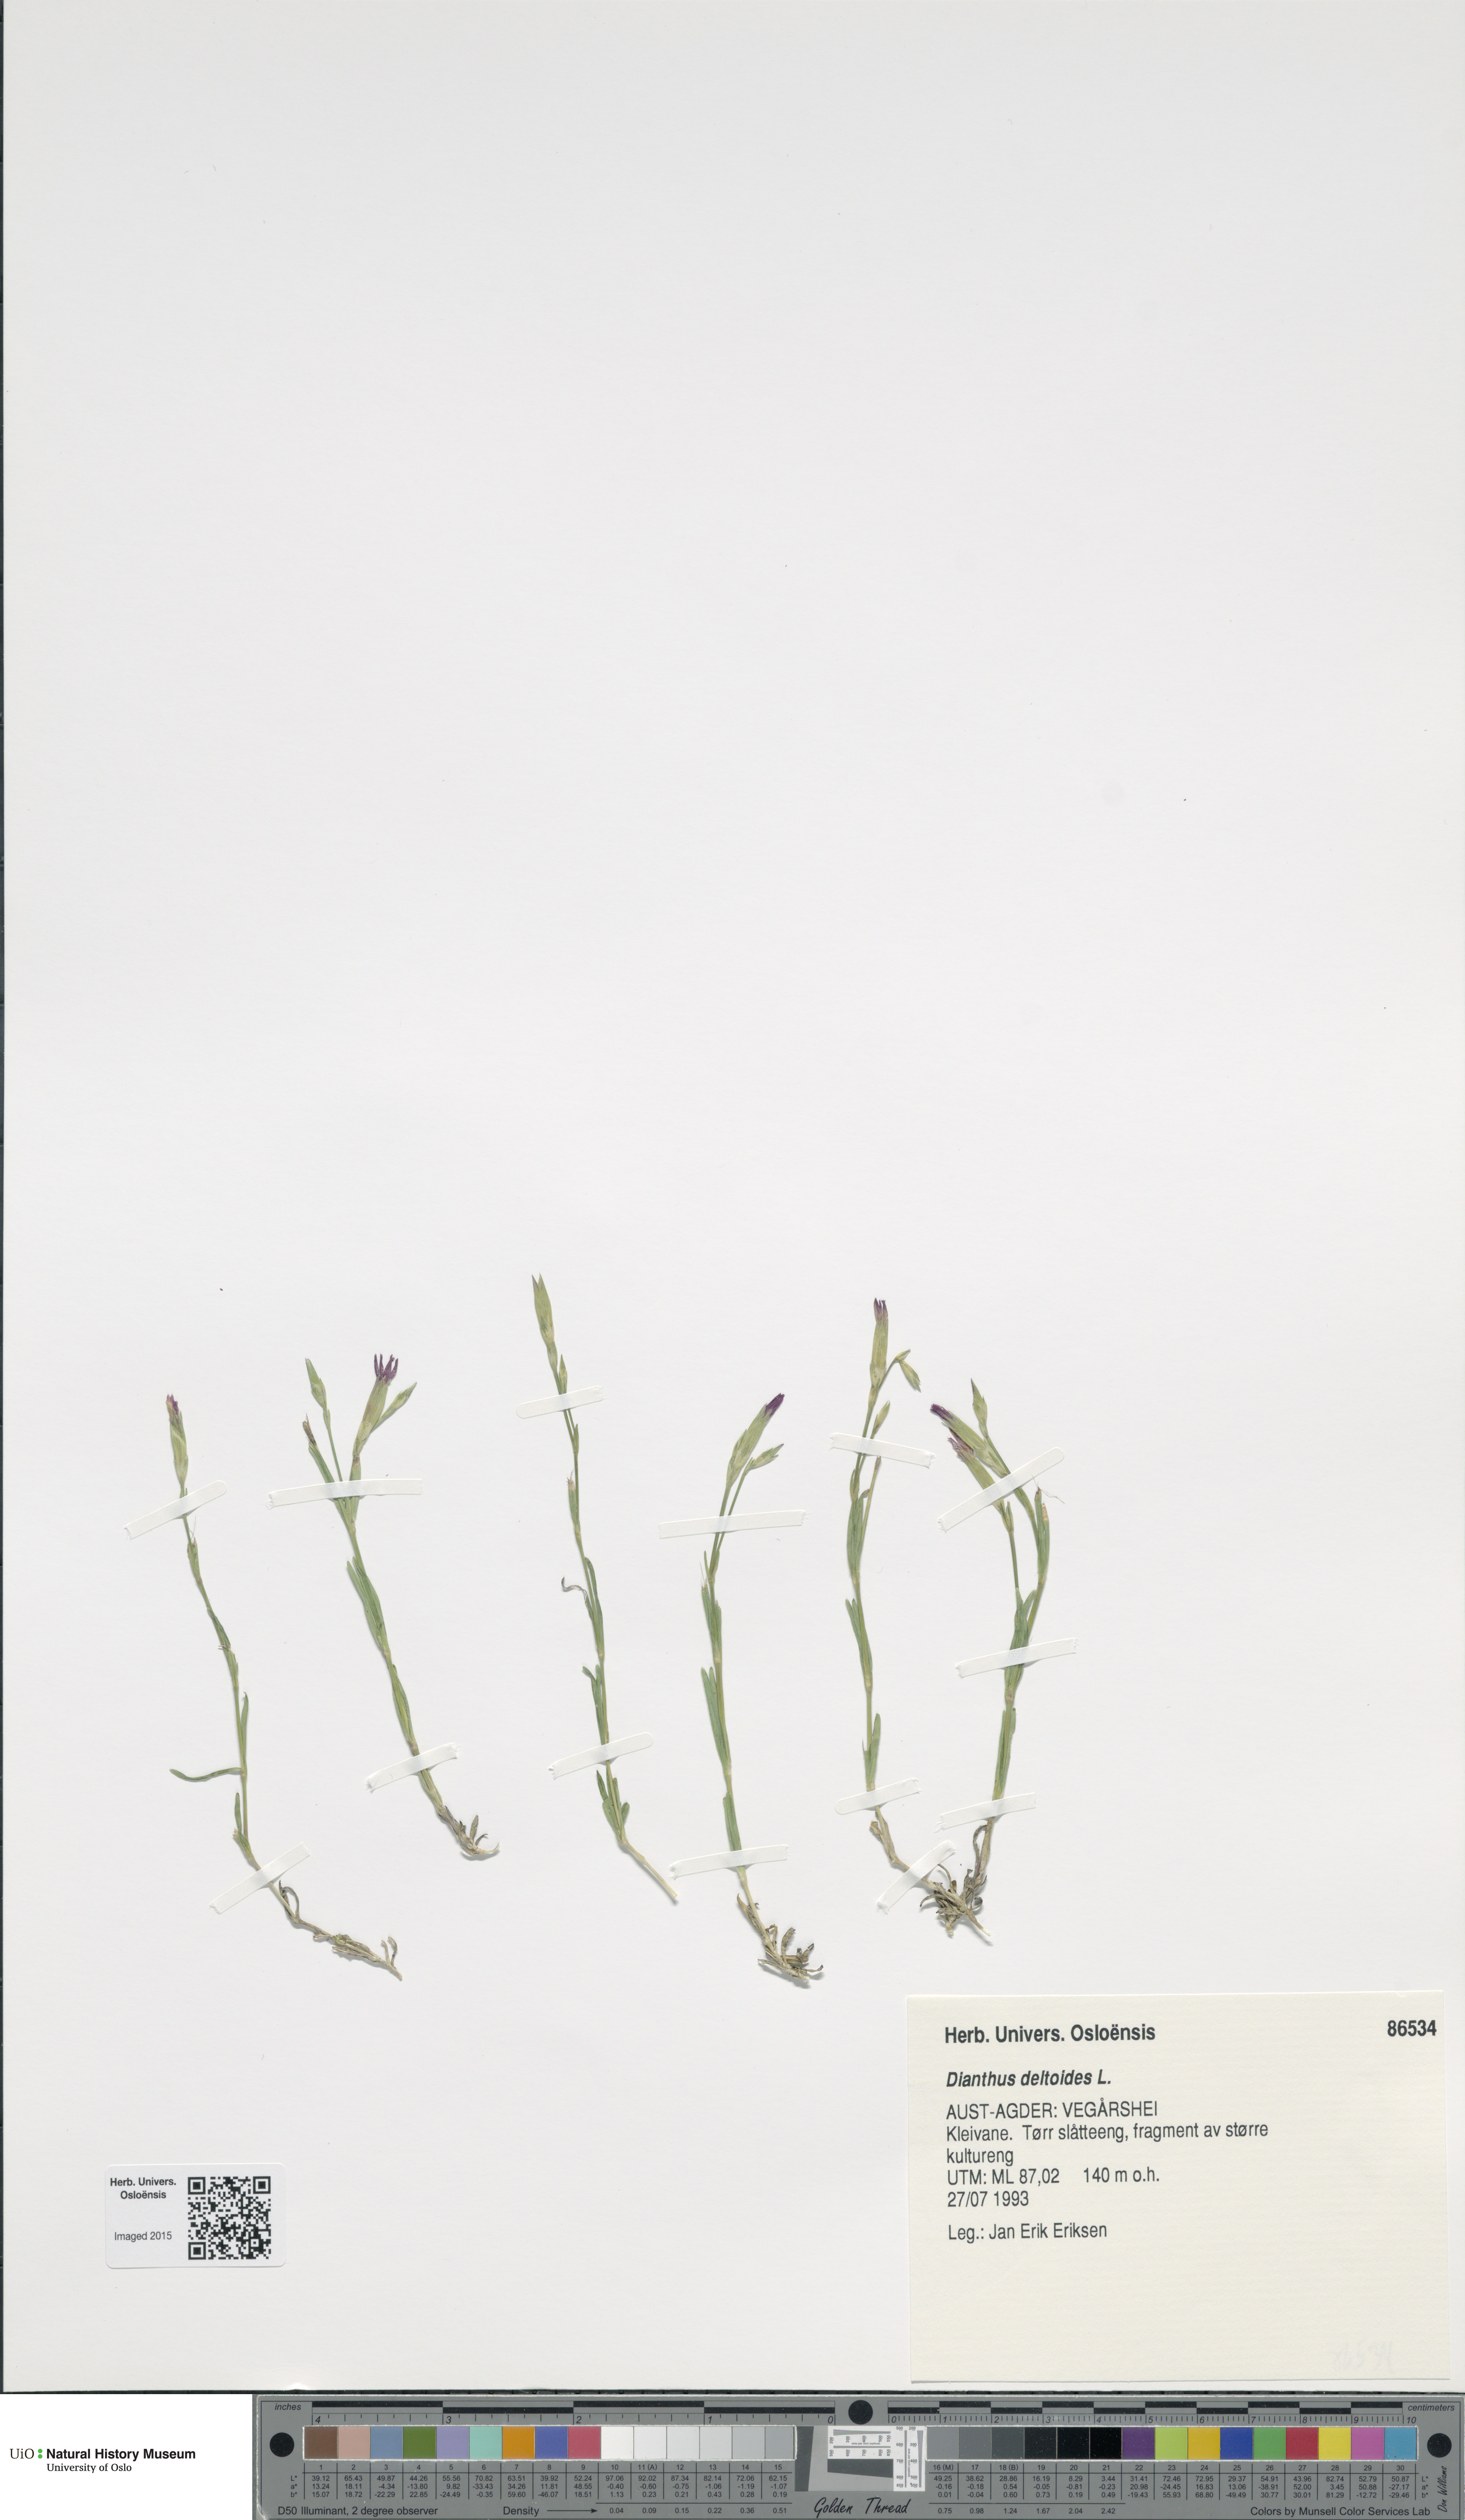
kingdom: Plantae
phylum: Tracheophyta
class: Magnoliopsida
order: Caryophyllales
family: Caryophyllaceae
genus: Dianthus
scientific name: Dianthus deltoides
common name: Maiden pink
